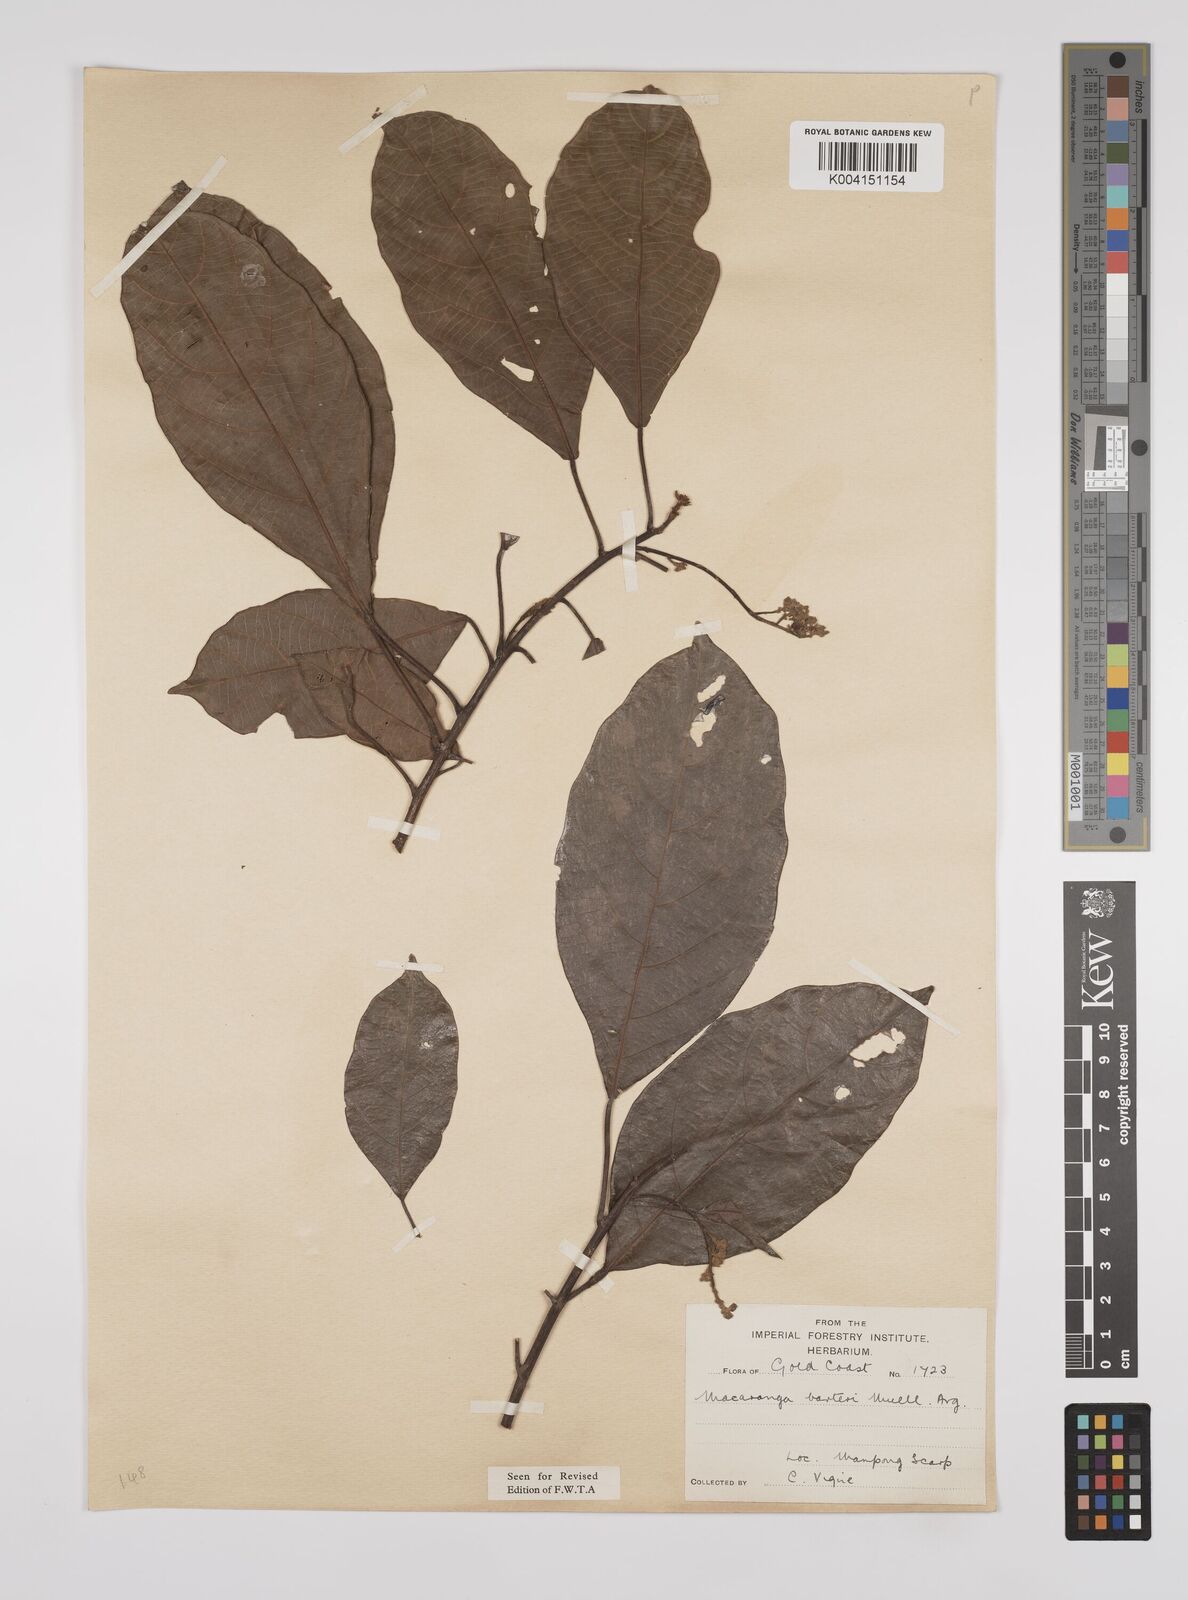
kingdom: Plantae
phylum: Tracheophyta
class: Magnoliopsida
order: Malpighiales
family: Euphorbiaceae
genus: Macaranga
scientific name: Macaranga barteri
